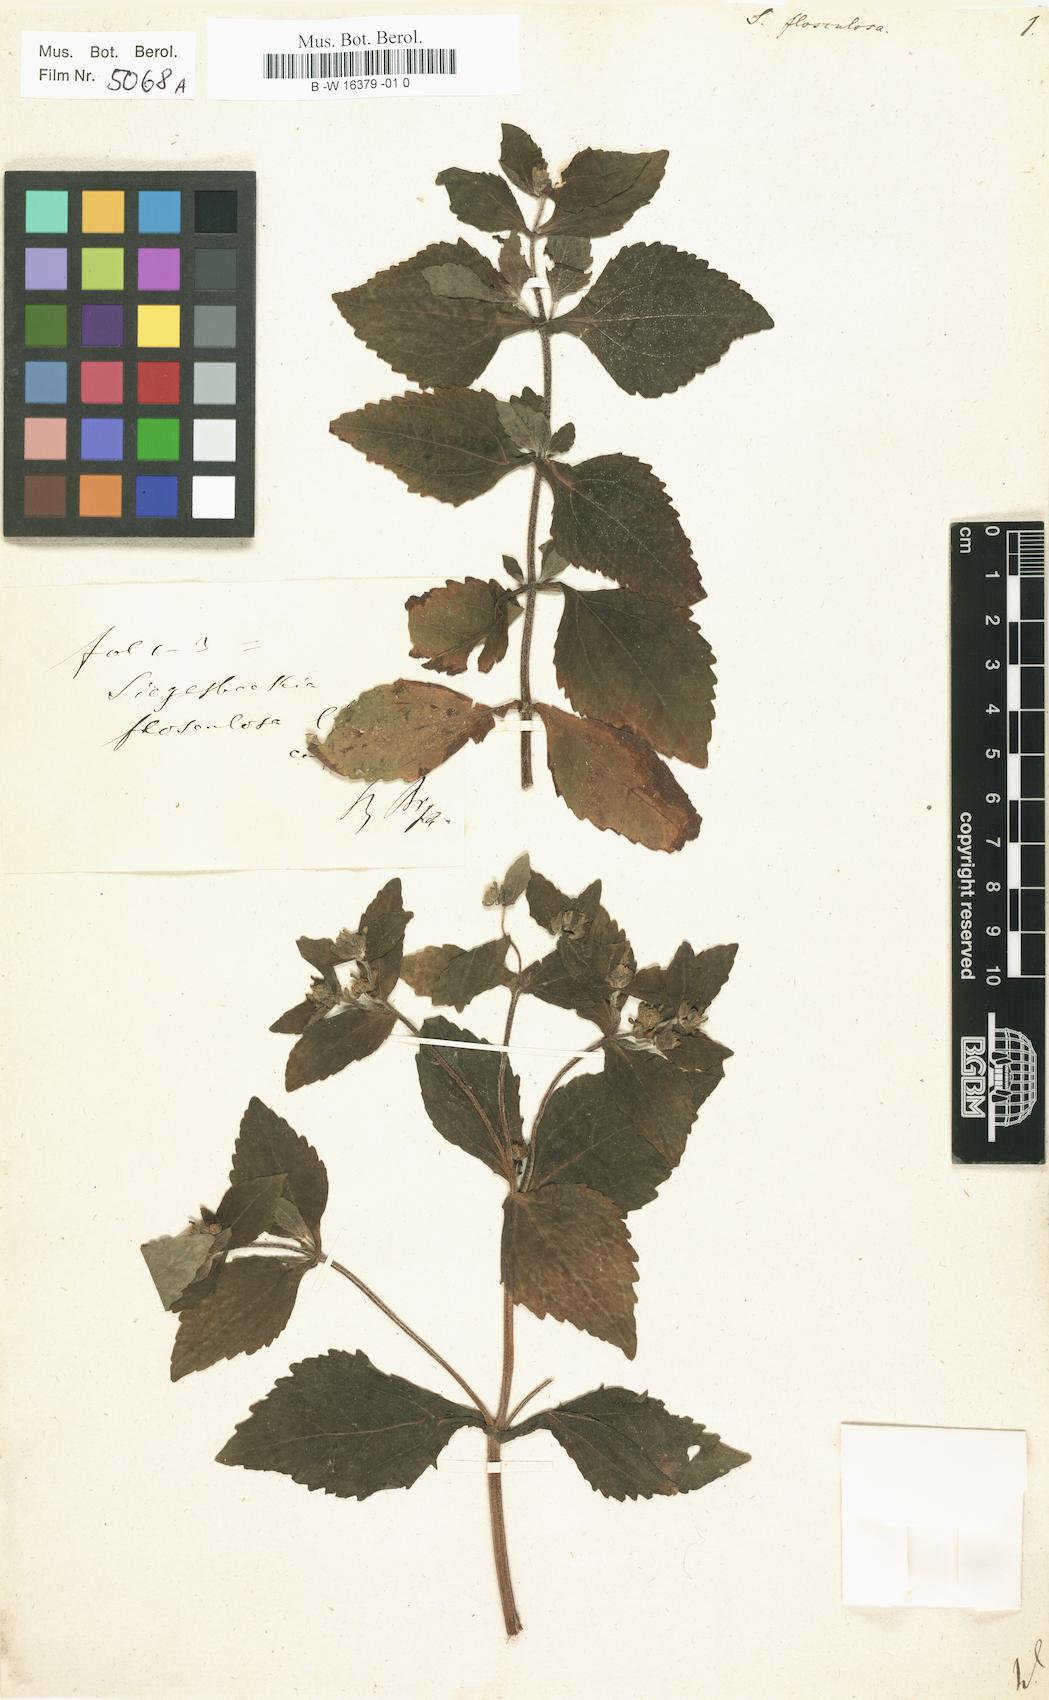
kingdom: Plantae
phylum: Tracheophyta
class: Magnoliopsida
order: Asterales
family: Asteraceae
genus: Siegesbeckia
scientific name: Siegesbeckia
